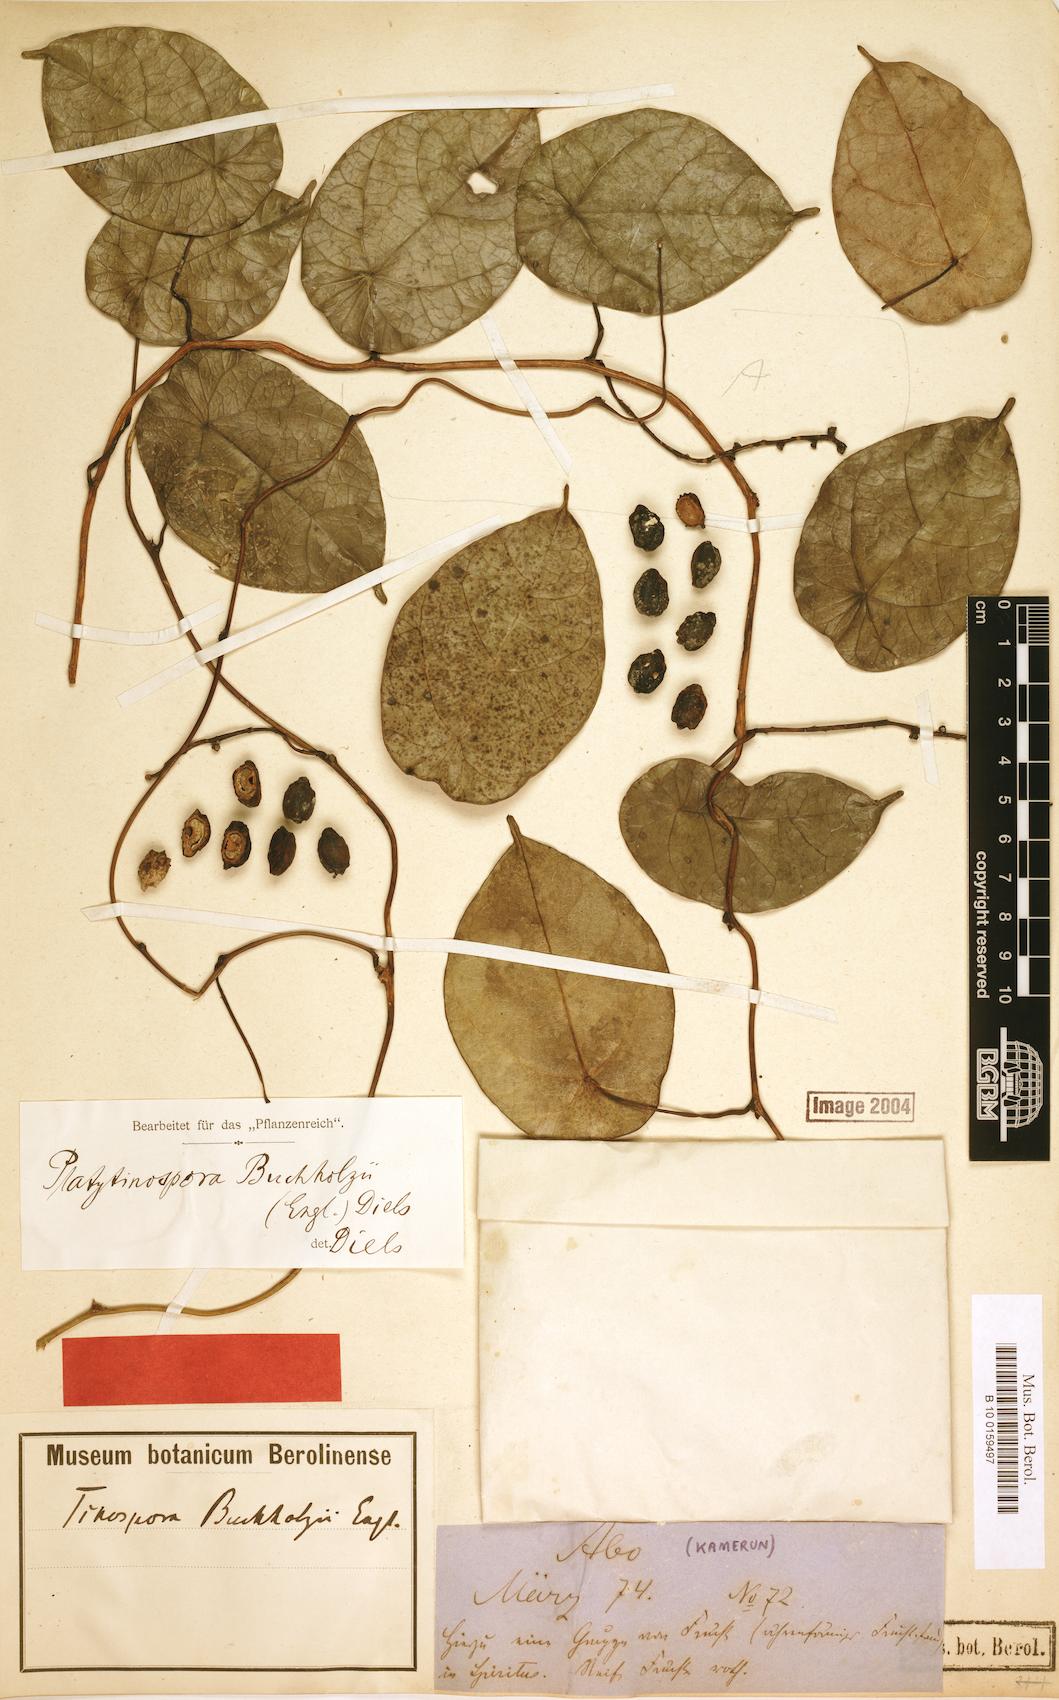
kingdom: Plantae
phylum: Tracheophyta
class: Magnoliopsida
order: Ranunculales
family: Menispermaceae
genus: Platytinospora
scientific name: Platytinospora buchholzii
